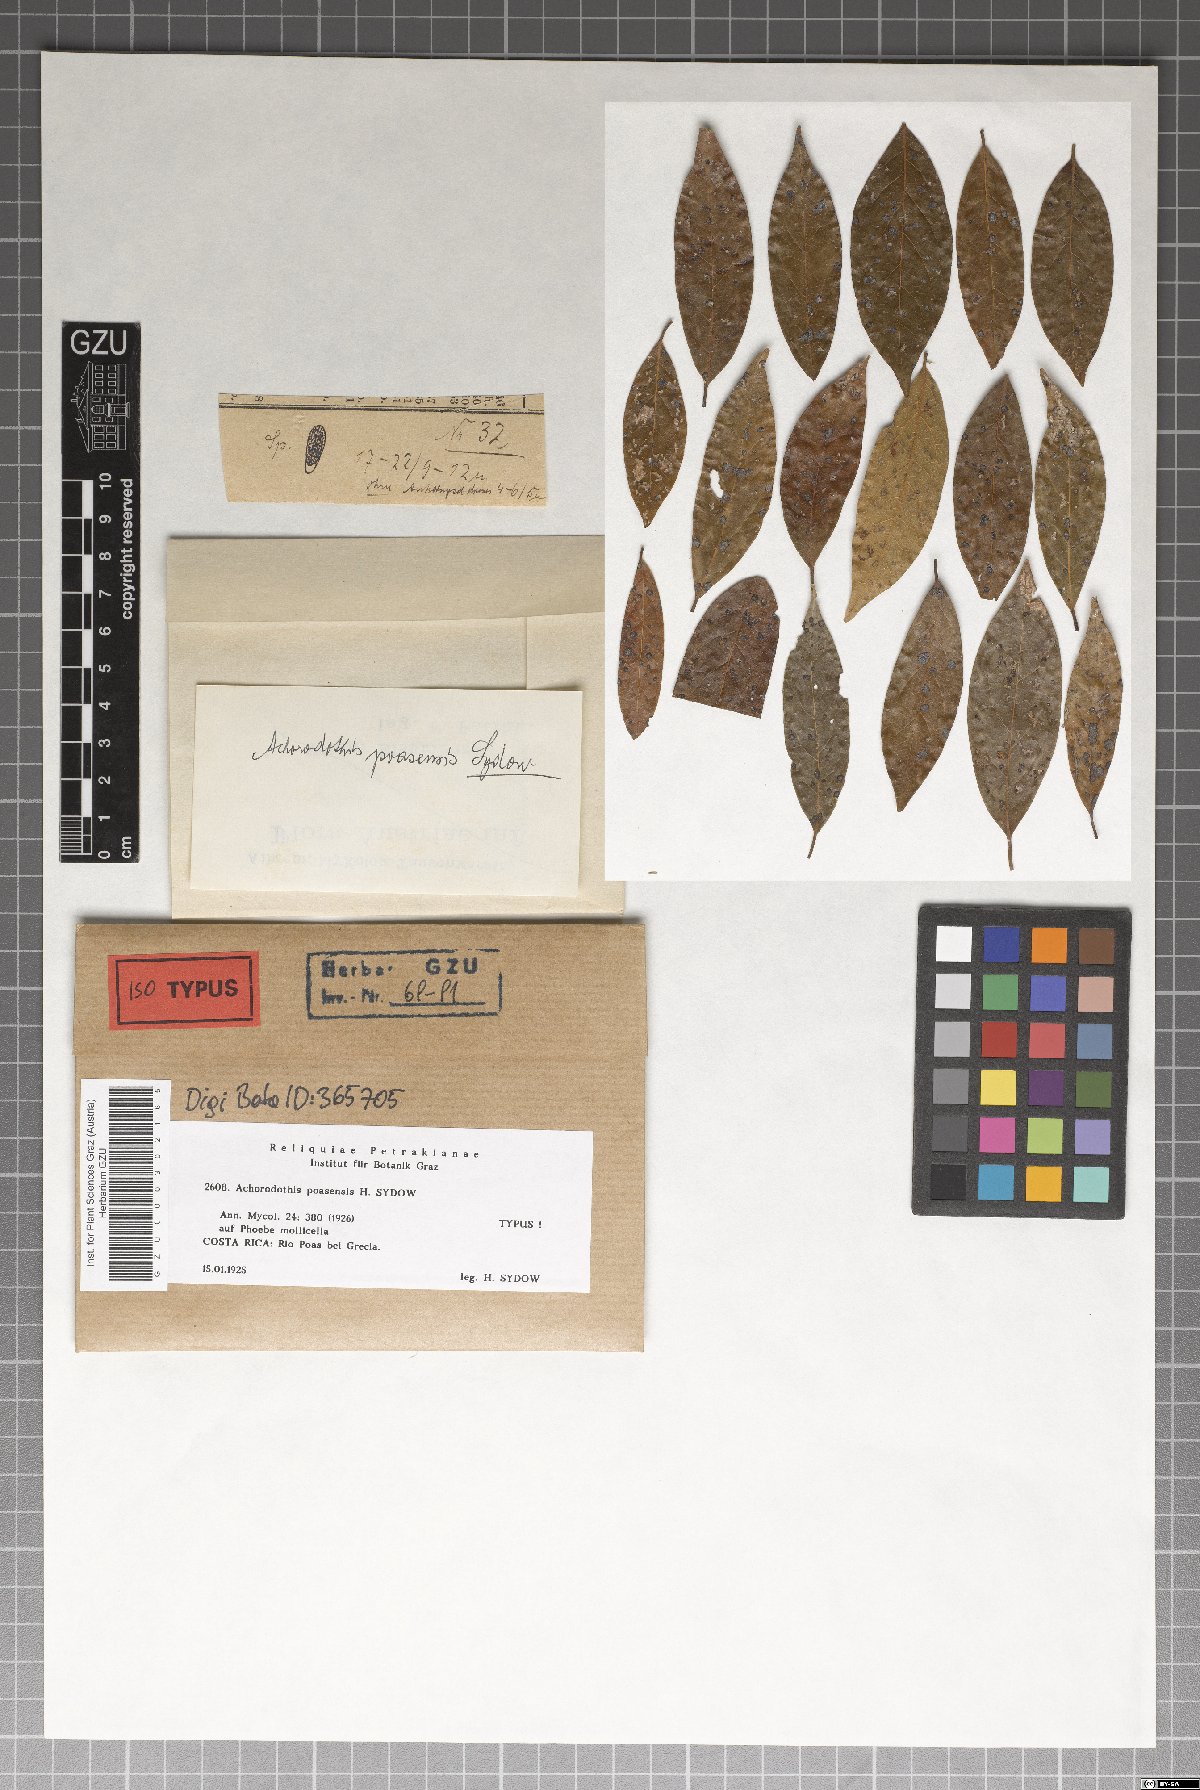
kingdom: Fungi
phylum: Ascomycota
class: Dothideomycetes
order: Mycosphaerellales
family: Mycosphaerellaceae
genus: Achorodothis
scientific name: Achorodothis poasensis
